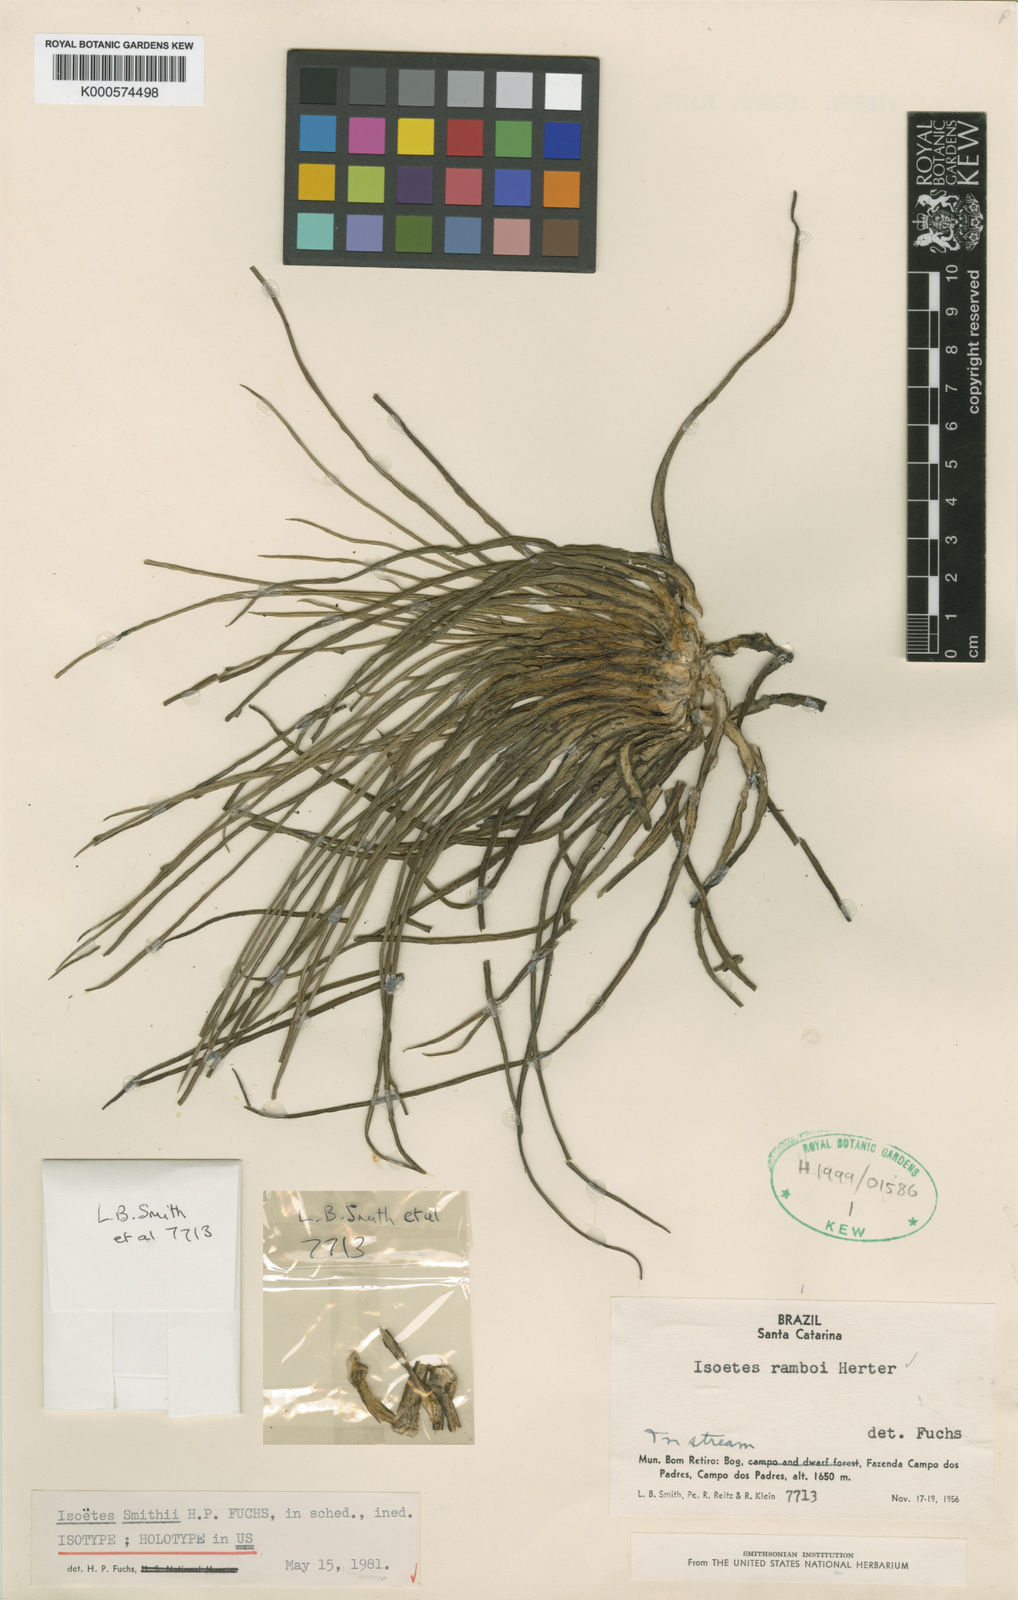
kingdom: Plantae
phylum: Tracheophyta
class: Lycopodiopsida
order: Isoetales
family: Isoetaceae
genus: Isoetes
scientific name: Isoetes smithii
